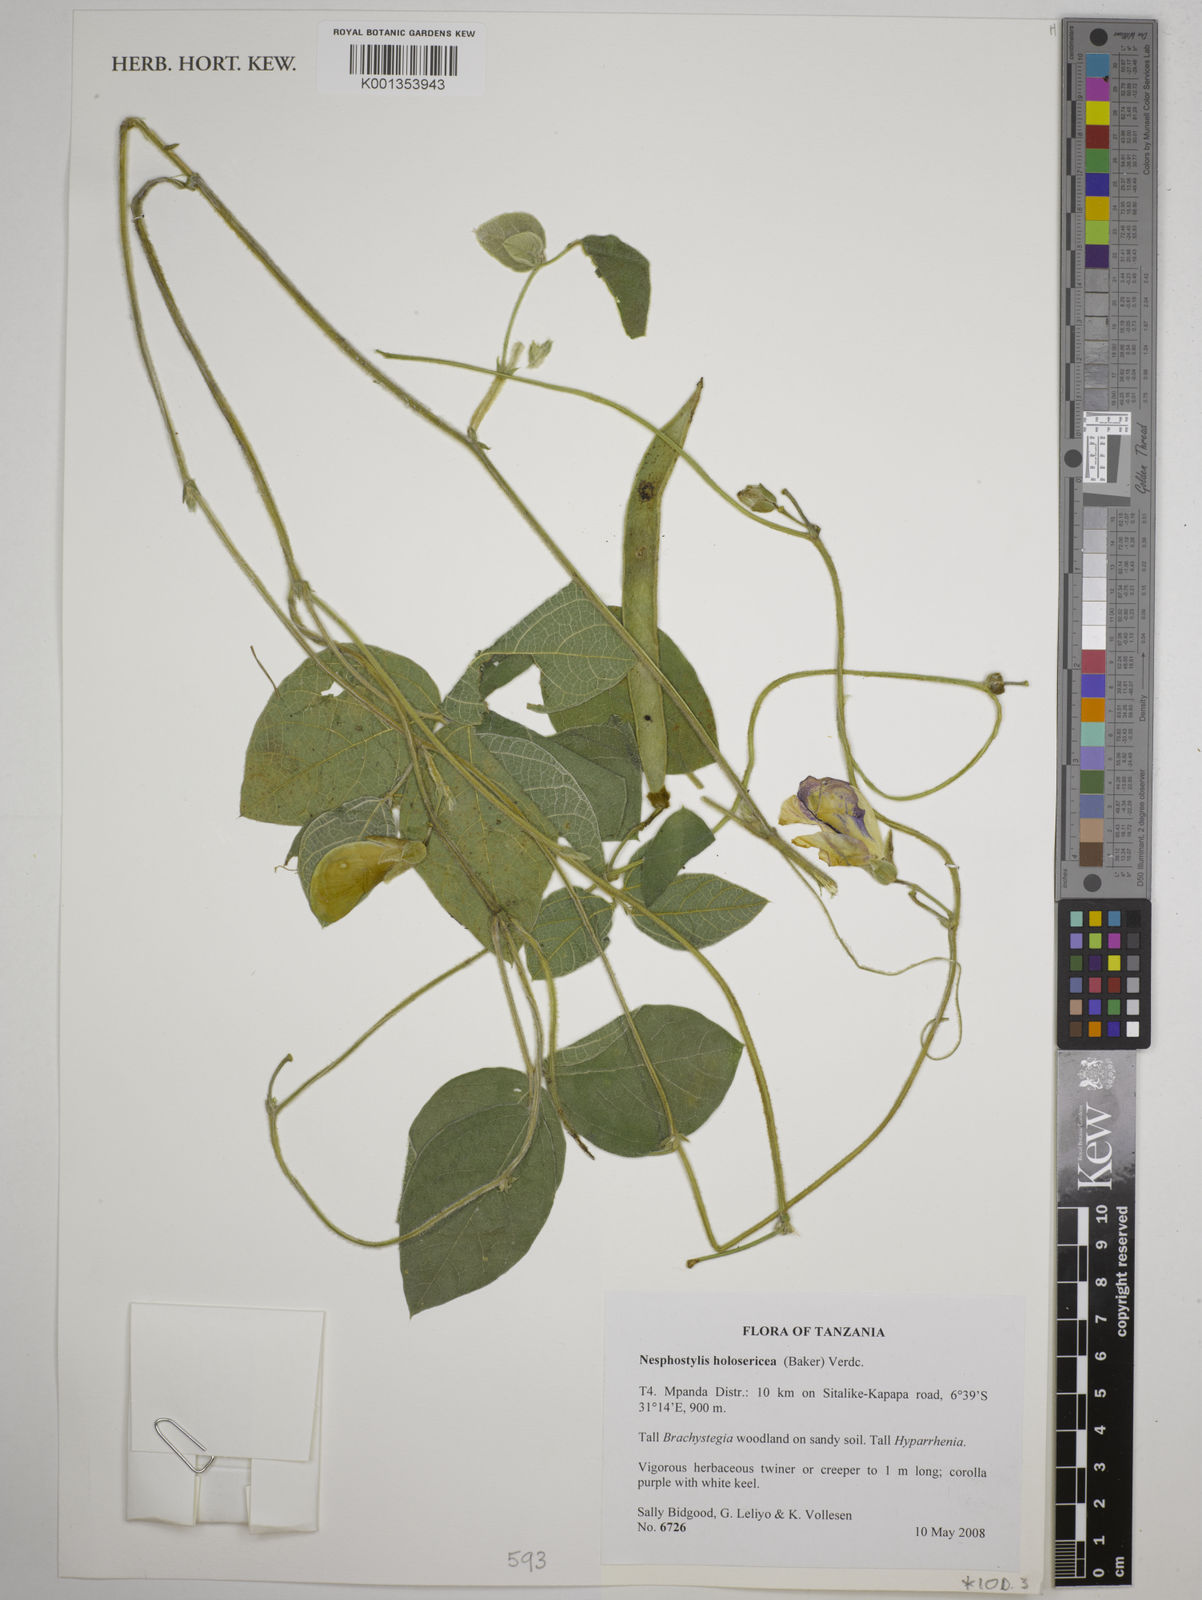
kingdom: Plantae
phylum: Tracheophyta
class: Magnoliopsida
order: Fabales
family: Fabaceae
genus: Nesphostylis
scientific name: Nesphostylis holosericea
